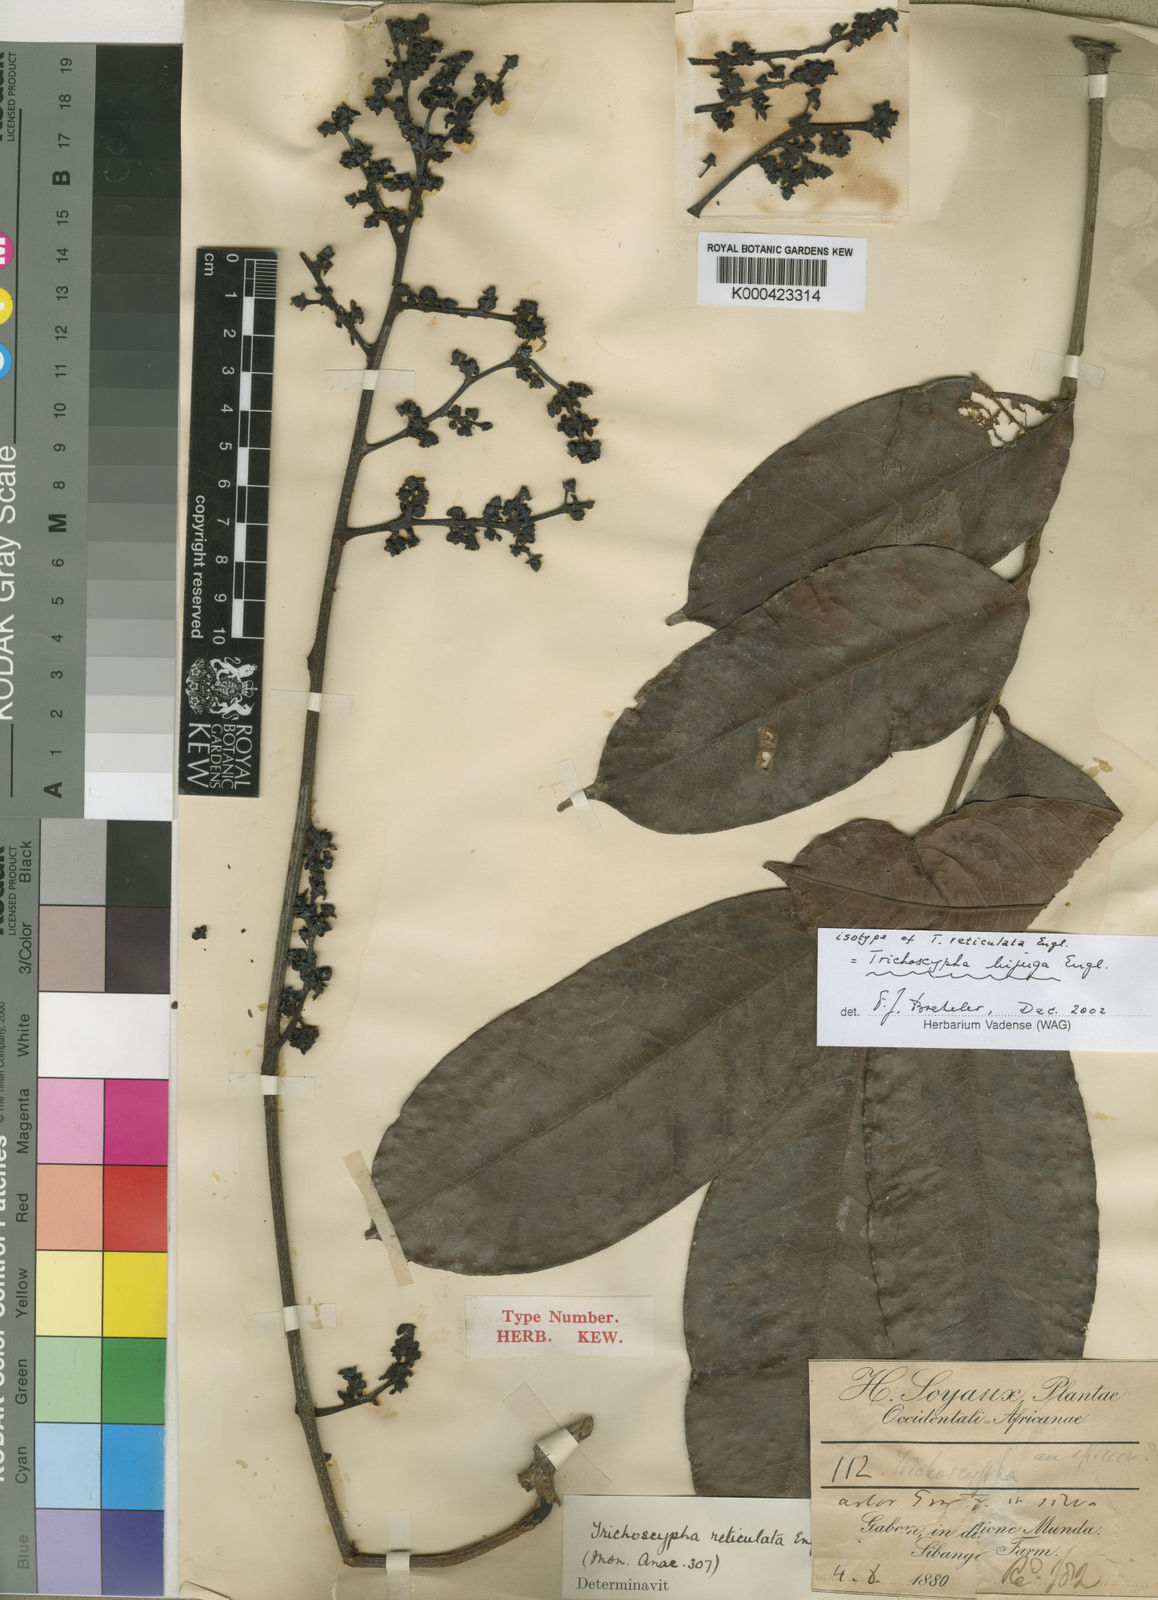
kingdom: Plantae
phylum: Tracheophyta
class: Magnoliopsida
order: Sapindales
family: Anacardiaceae
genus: Trichoscypha
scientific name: Trichoscypha bijuga
